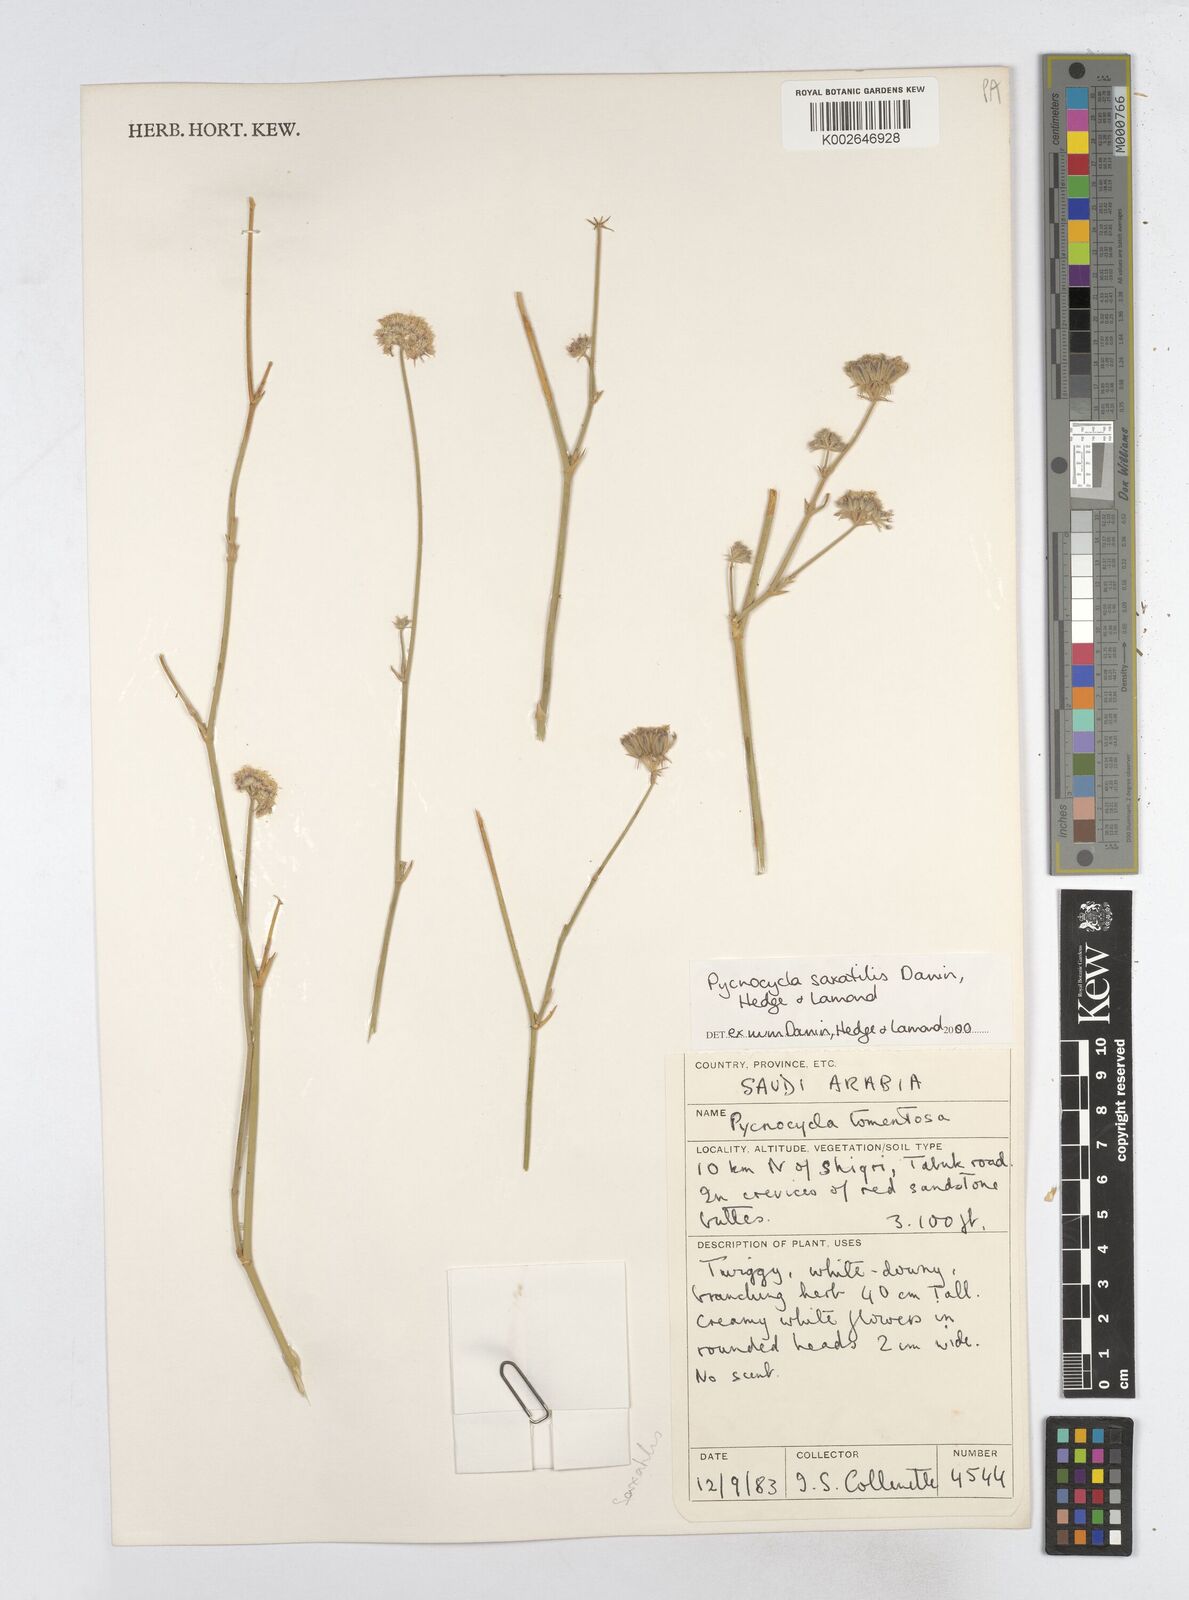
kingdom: Plantae
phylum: Tracheophyta
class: Magnoliopsida
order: Apiales
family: Apiaceae
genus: Pycnocycla
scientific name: Pycnocycla saxatilis
